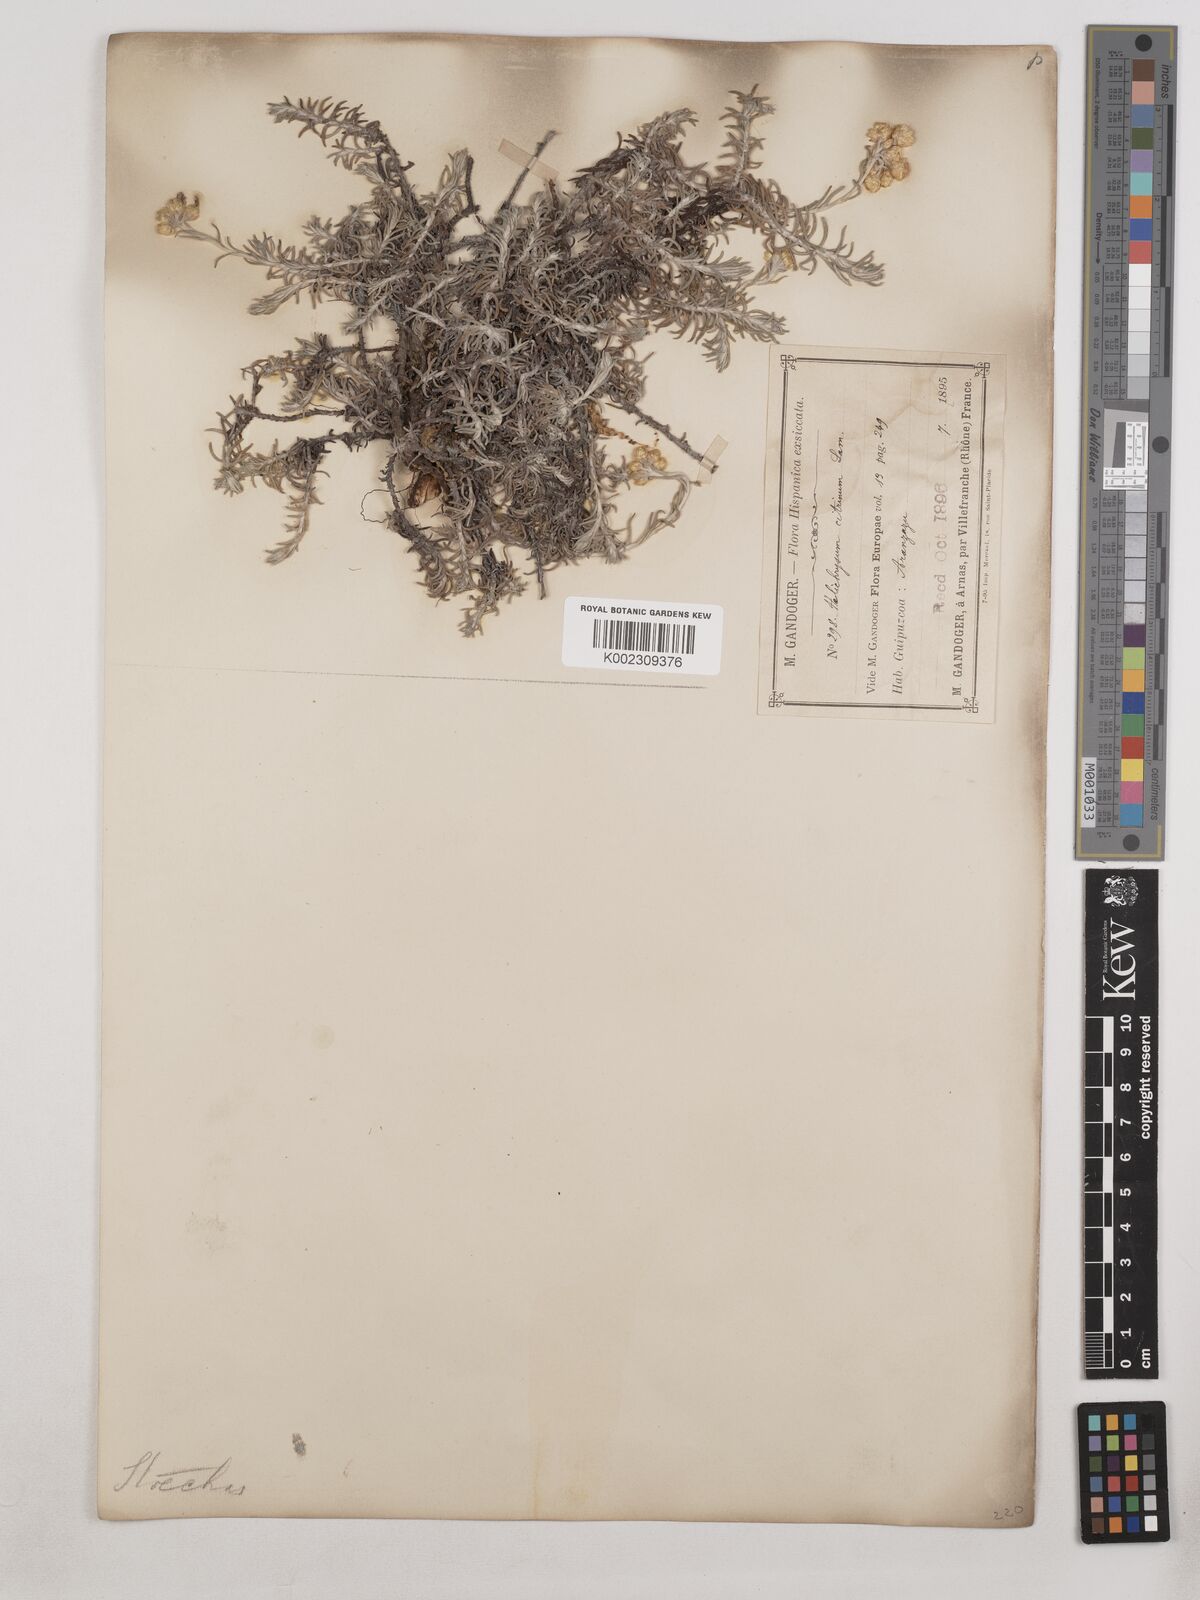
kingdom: Plantae
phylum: Tracheophyta
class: Magnoliopsida
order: Asterales
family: Asteraceae
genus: Helichrysum
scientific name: Helichrysum
